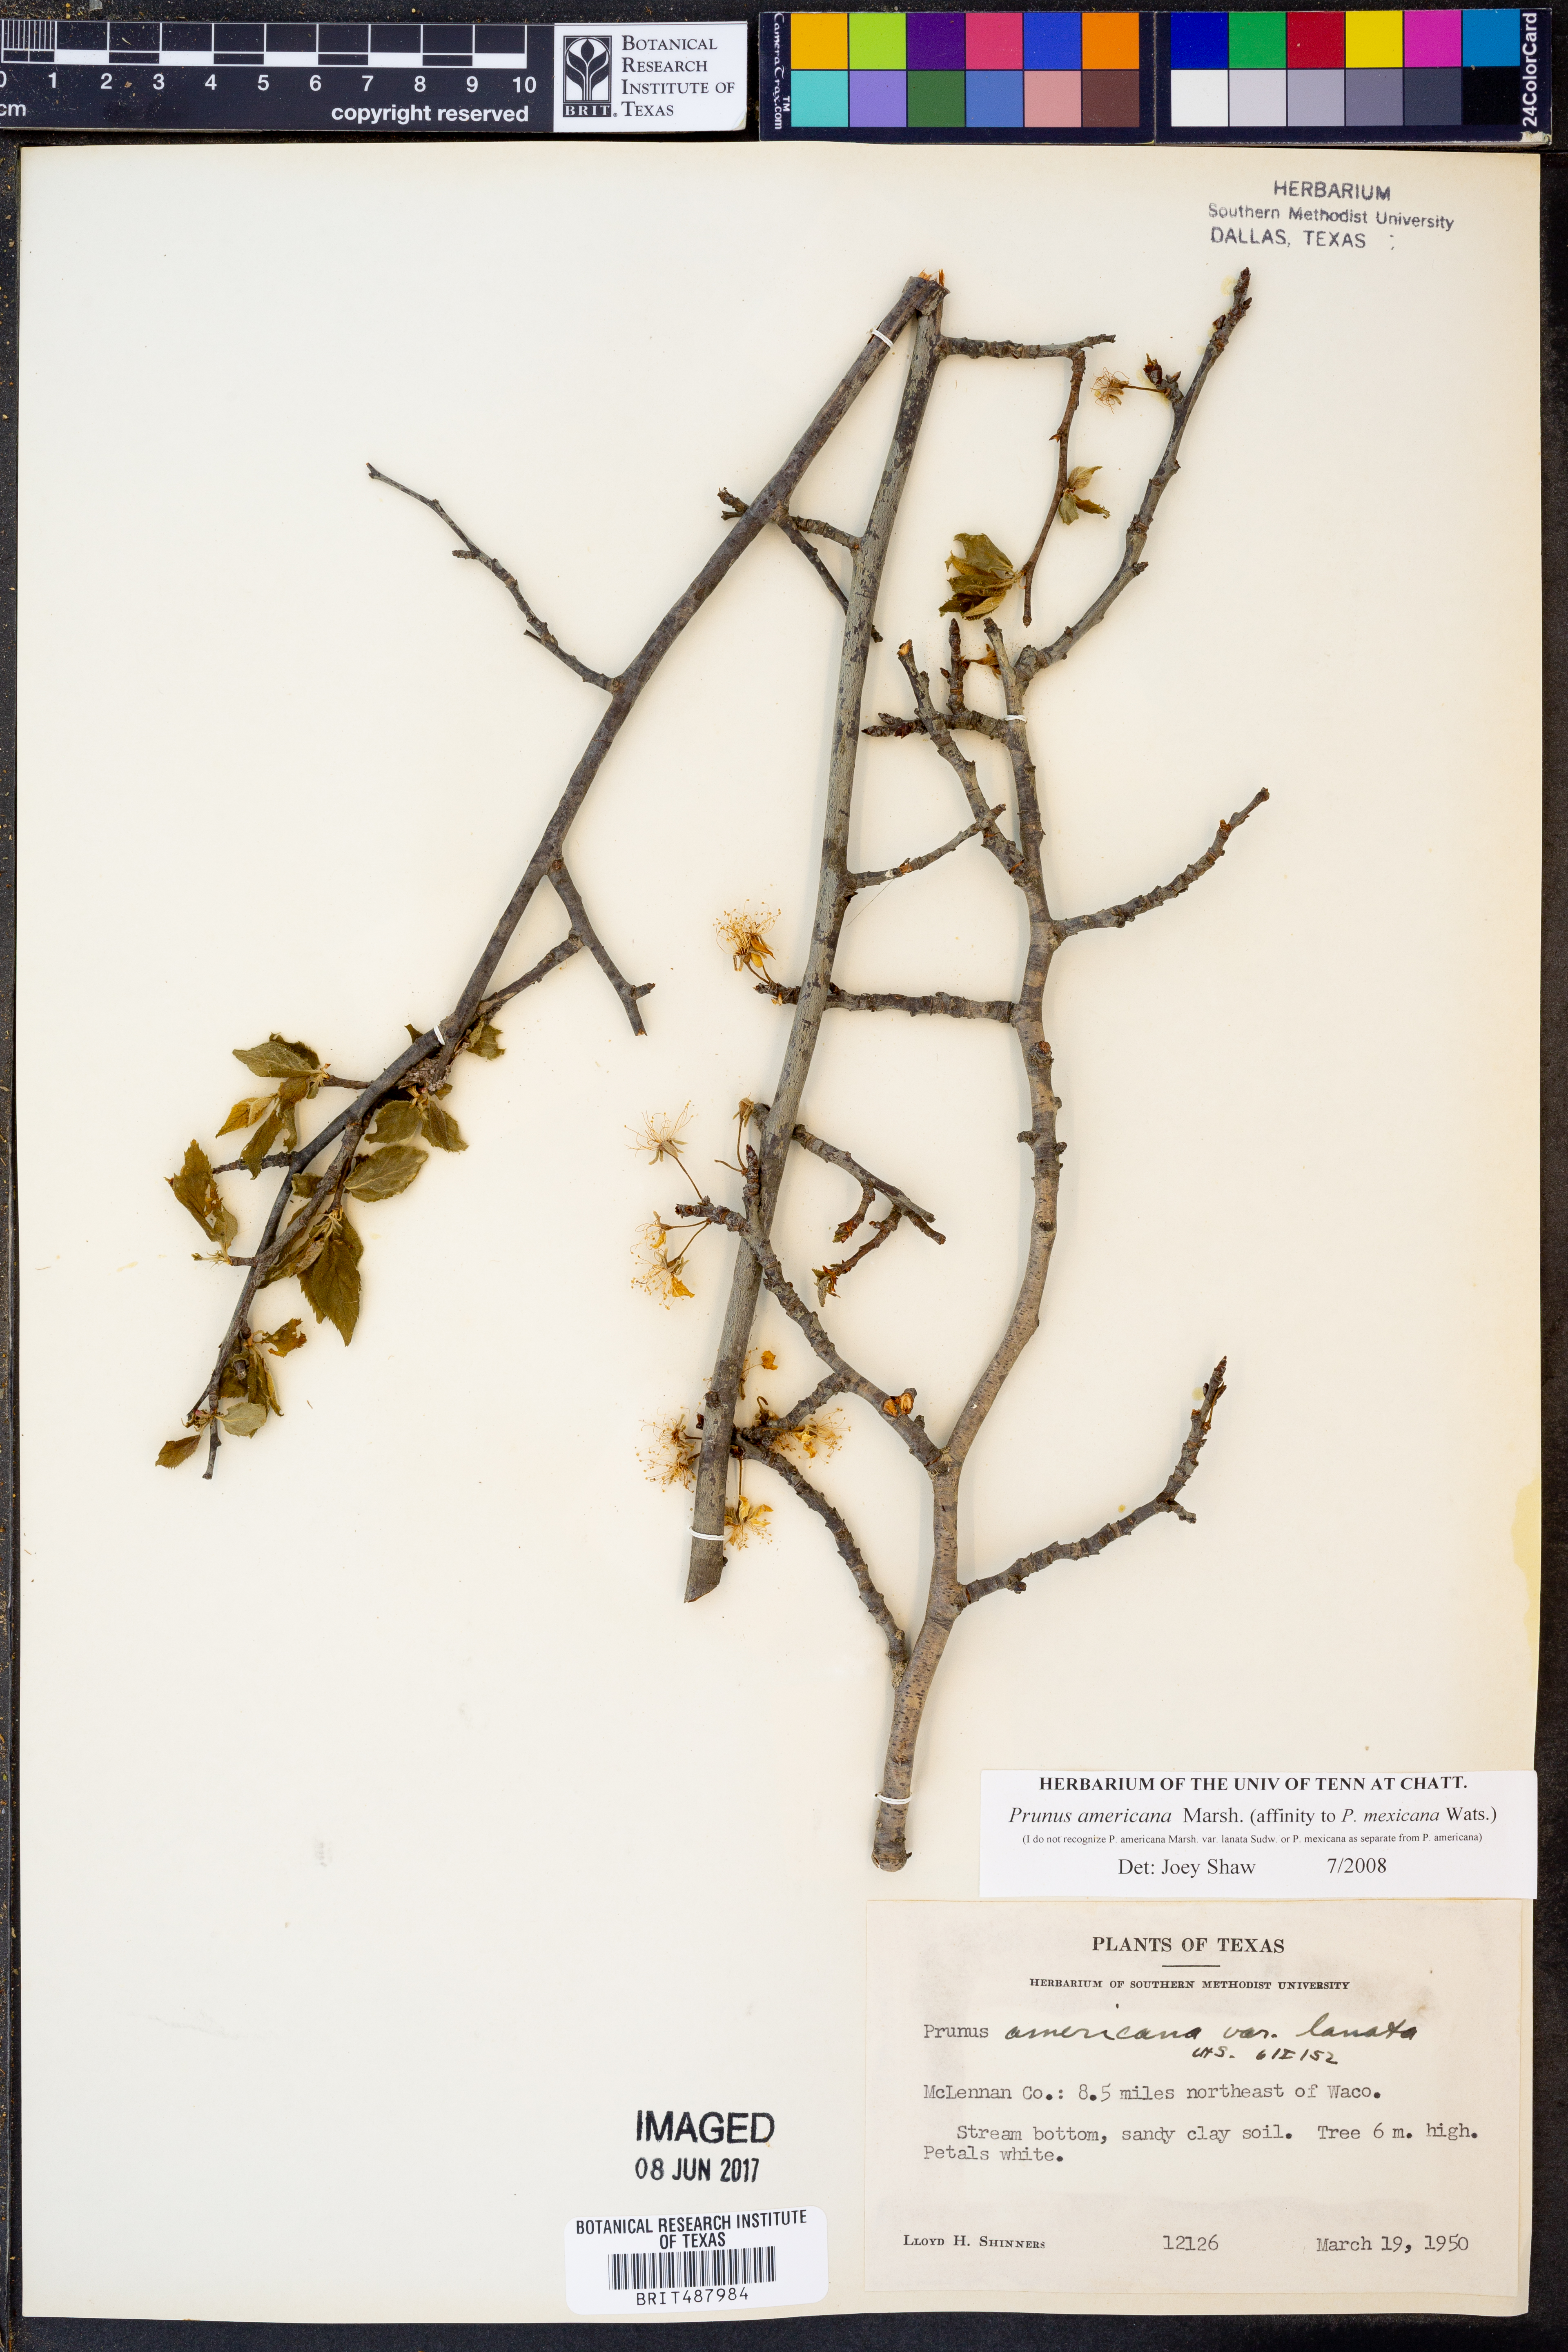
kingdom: Plantae
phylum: Tracheophyta
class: Magnoliopsida
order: Rosales
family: Rosaceae
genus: Prunus
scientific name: Prunus americana
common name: American plum
